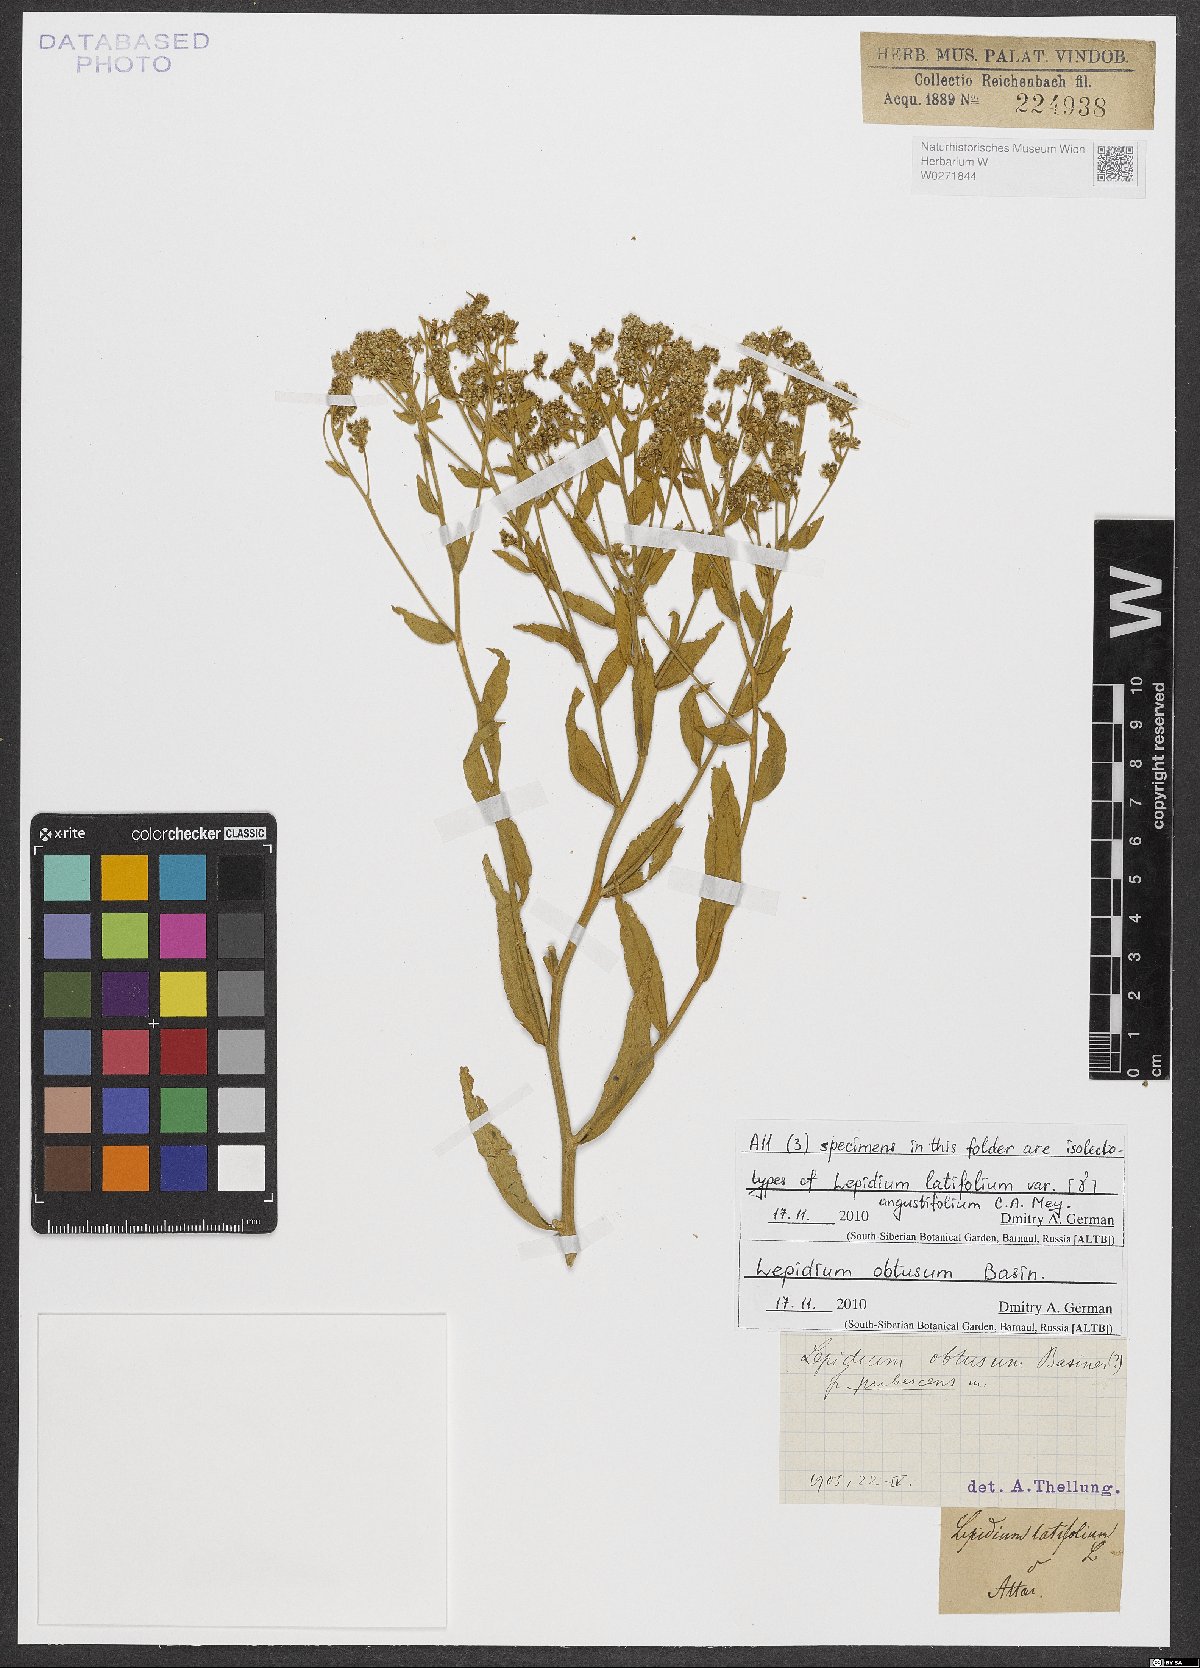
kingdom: Plantae
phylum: Tracheophyta
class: Magnoliopsida
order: Brassicales
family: Brassicaceae
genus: Lepidium
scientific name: Lepidium latifolium
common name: Dittander
